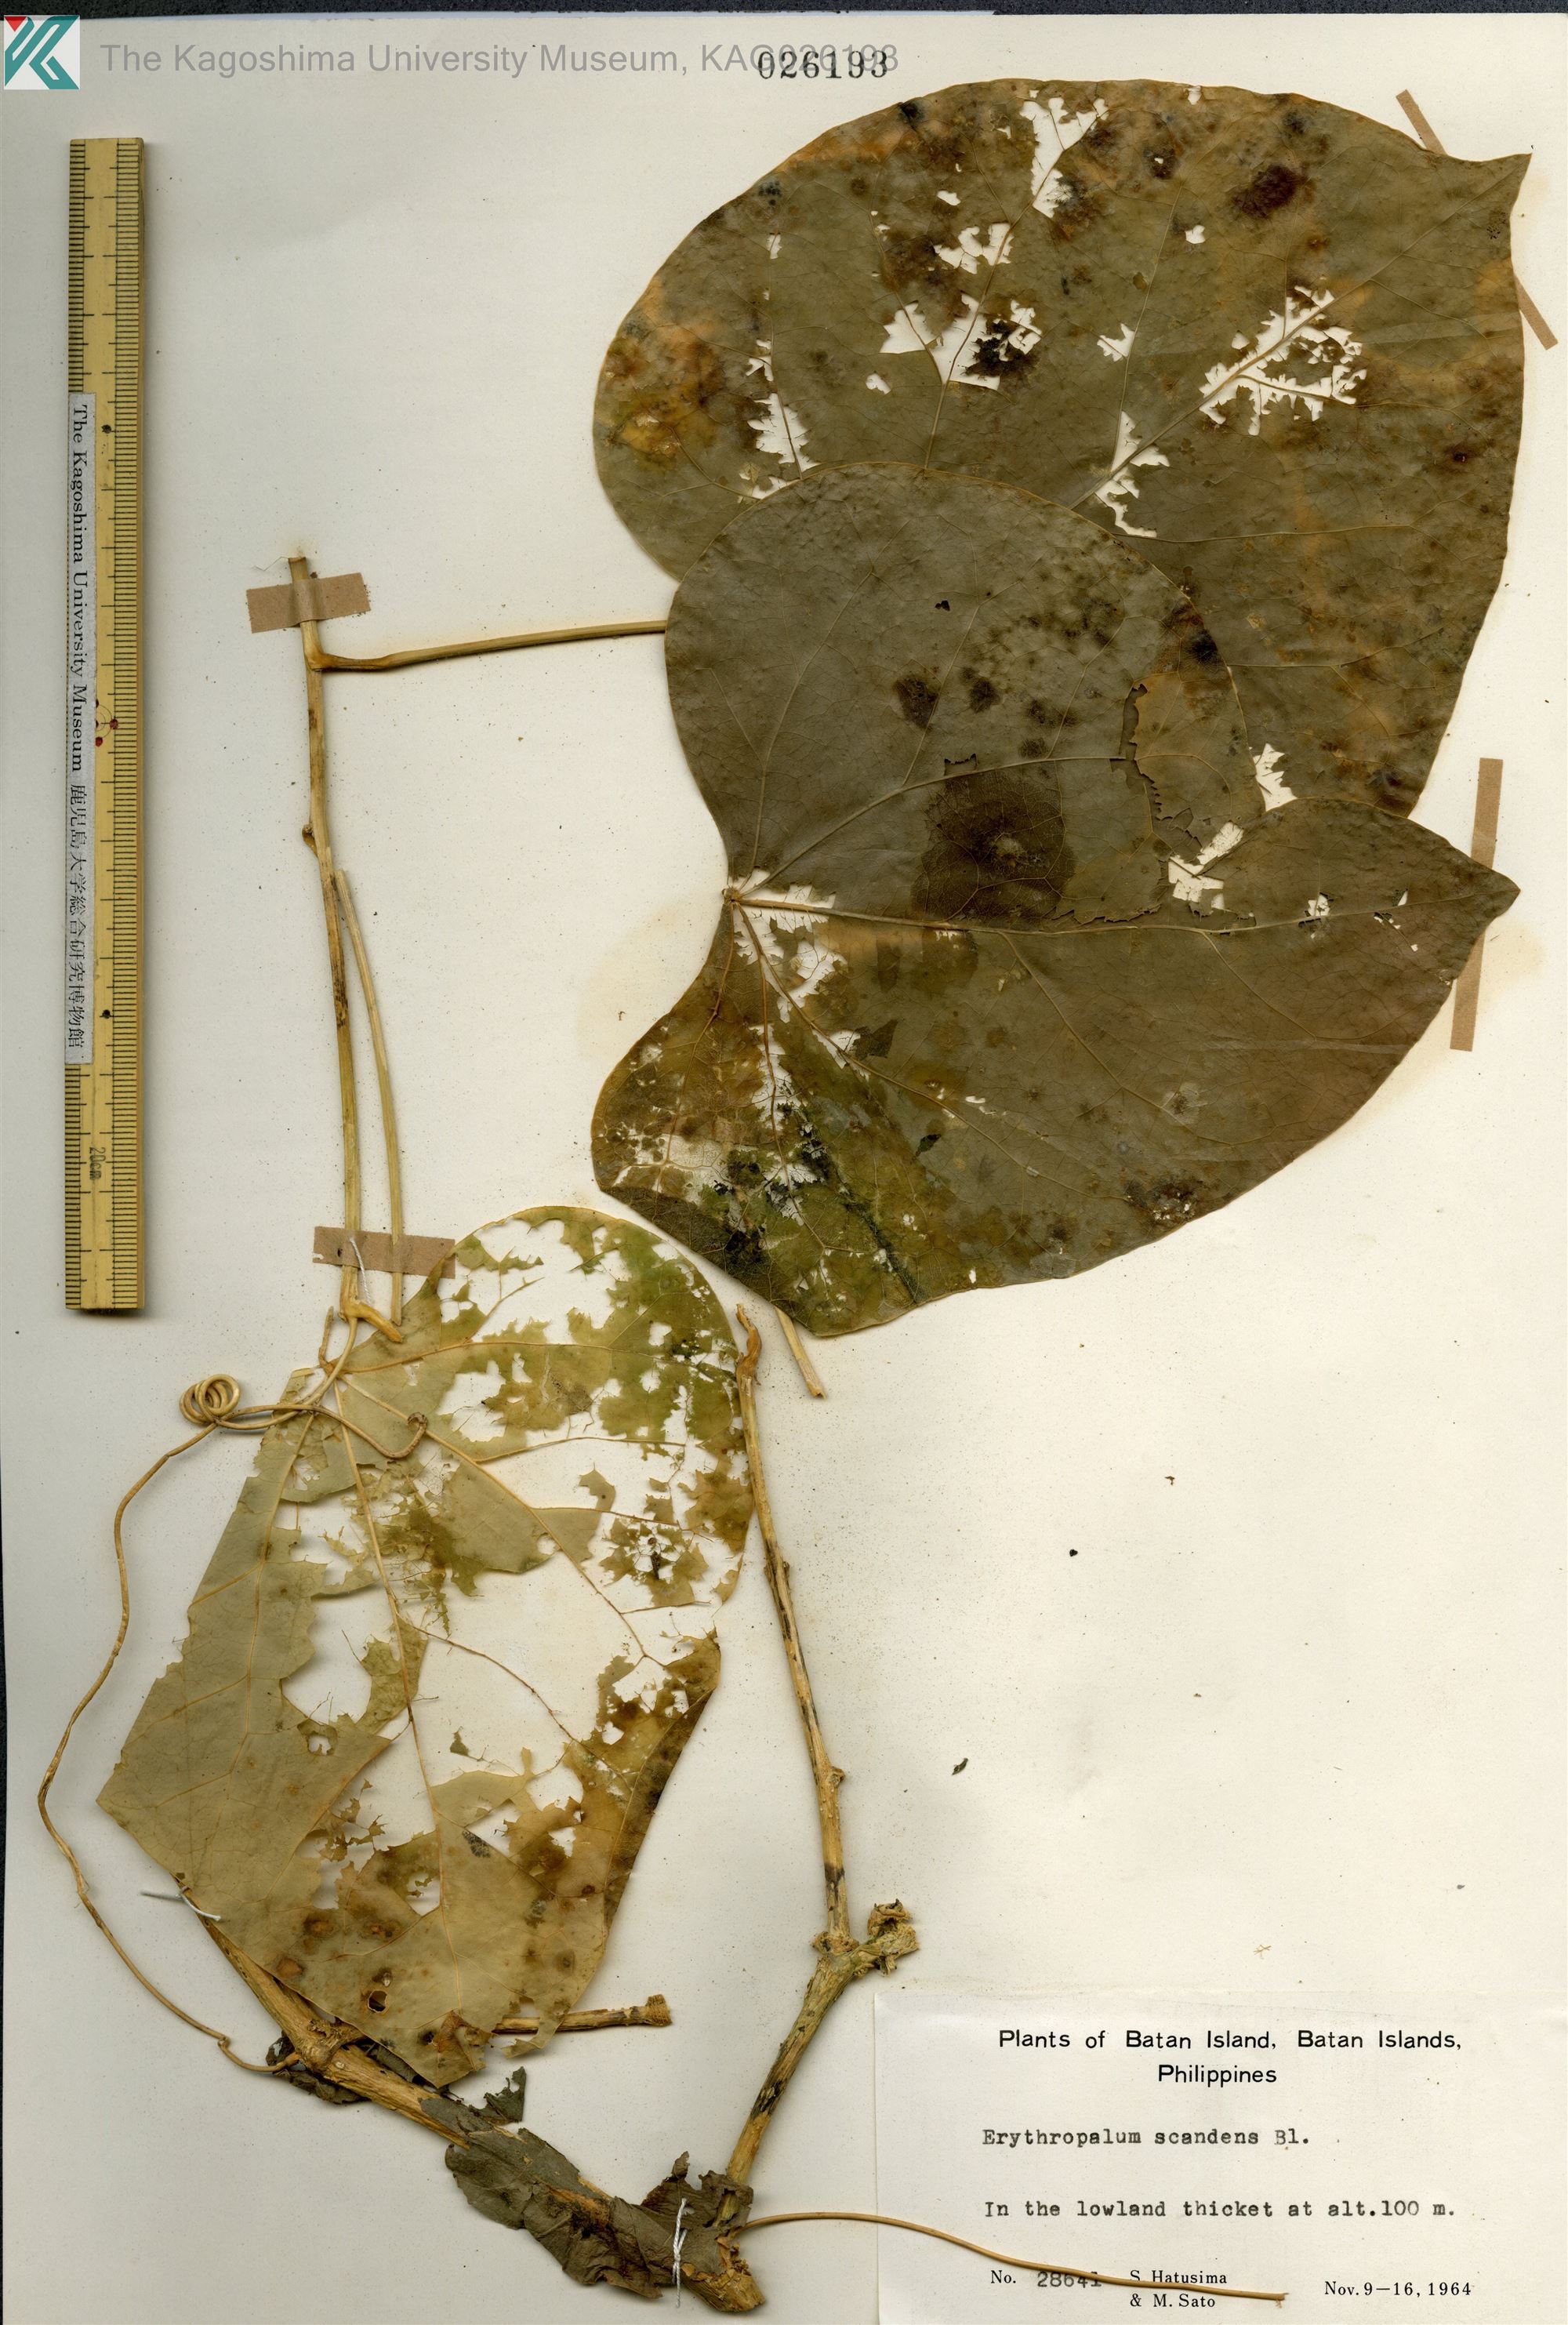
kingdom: Plantae
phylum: Tracheophyta
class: Magnoliopsida
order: Santalales
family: Erythropalaceae
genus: Erythropalum
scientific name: Erythropalum scandens
